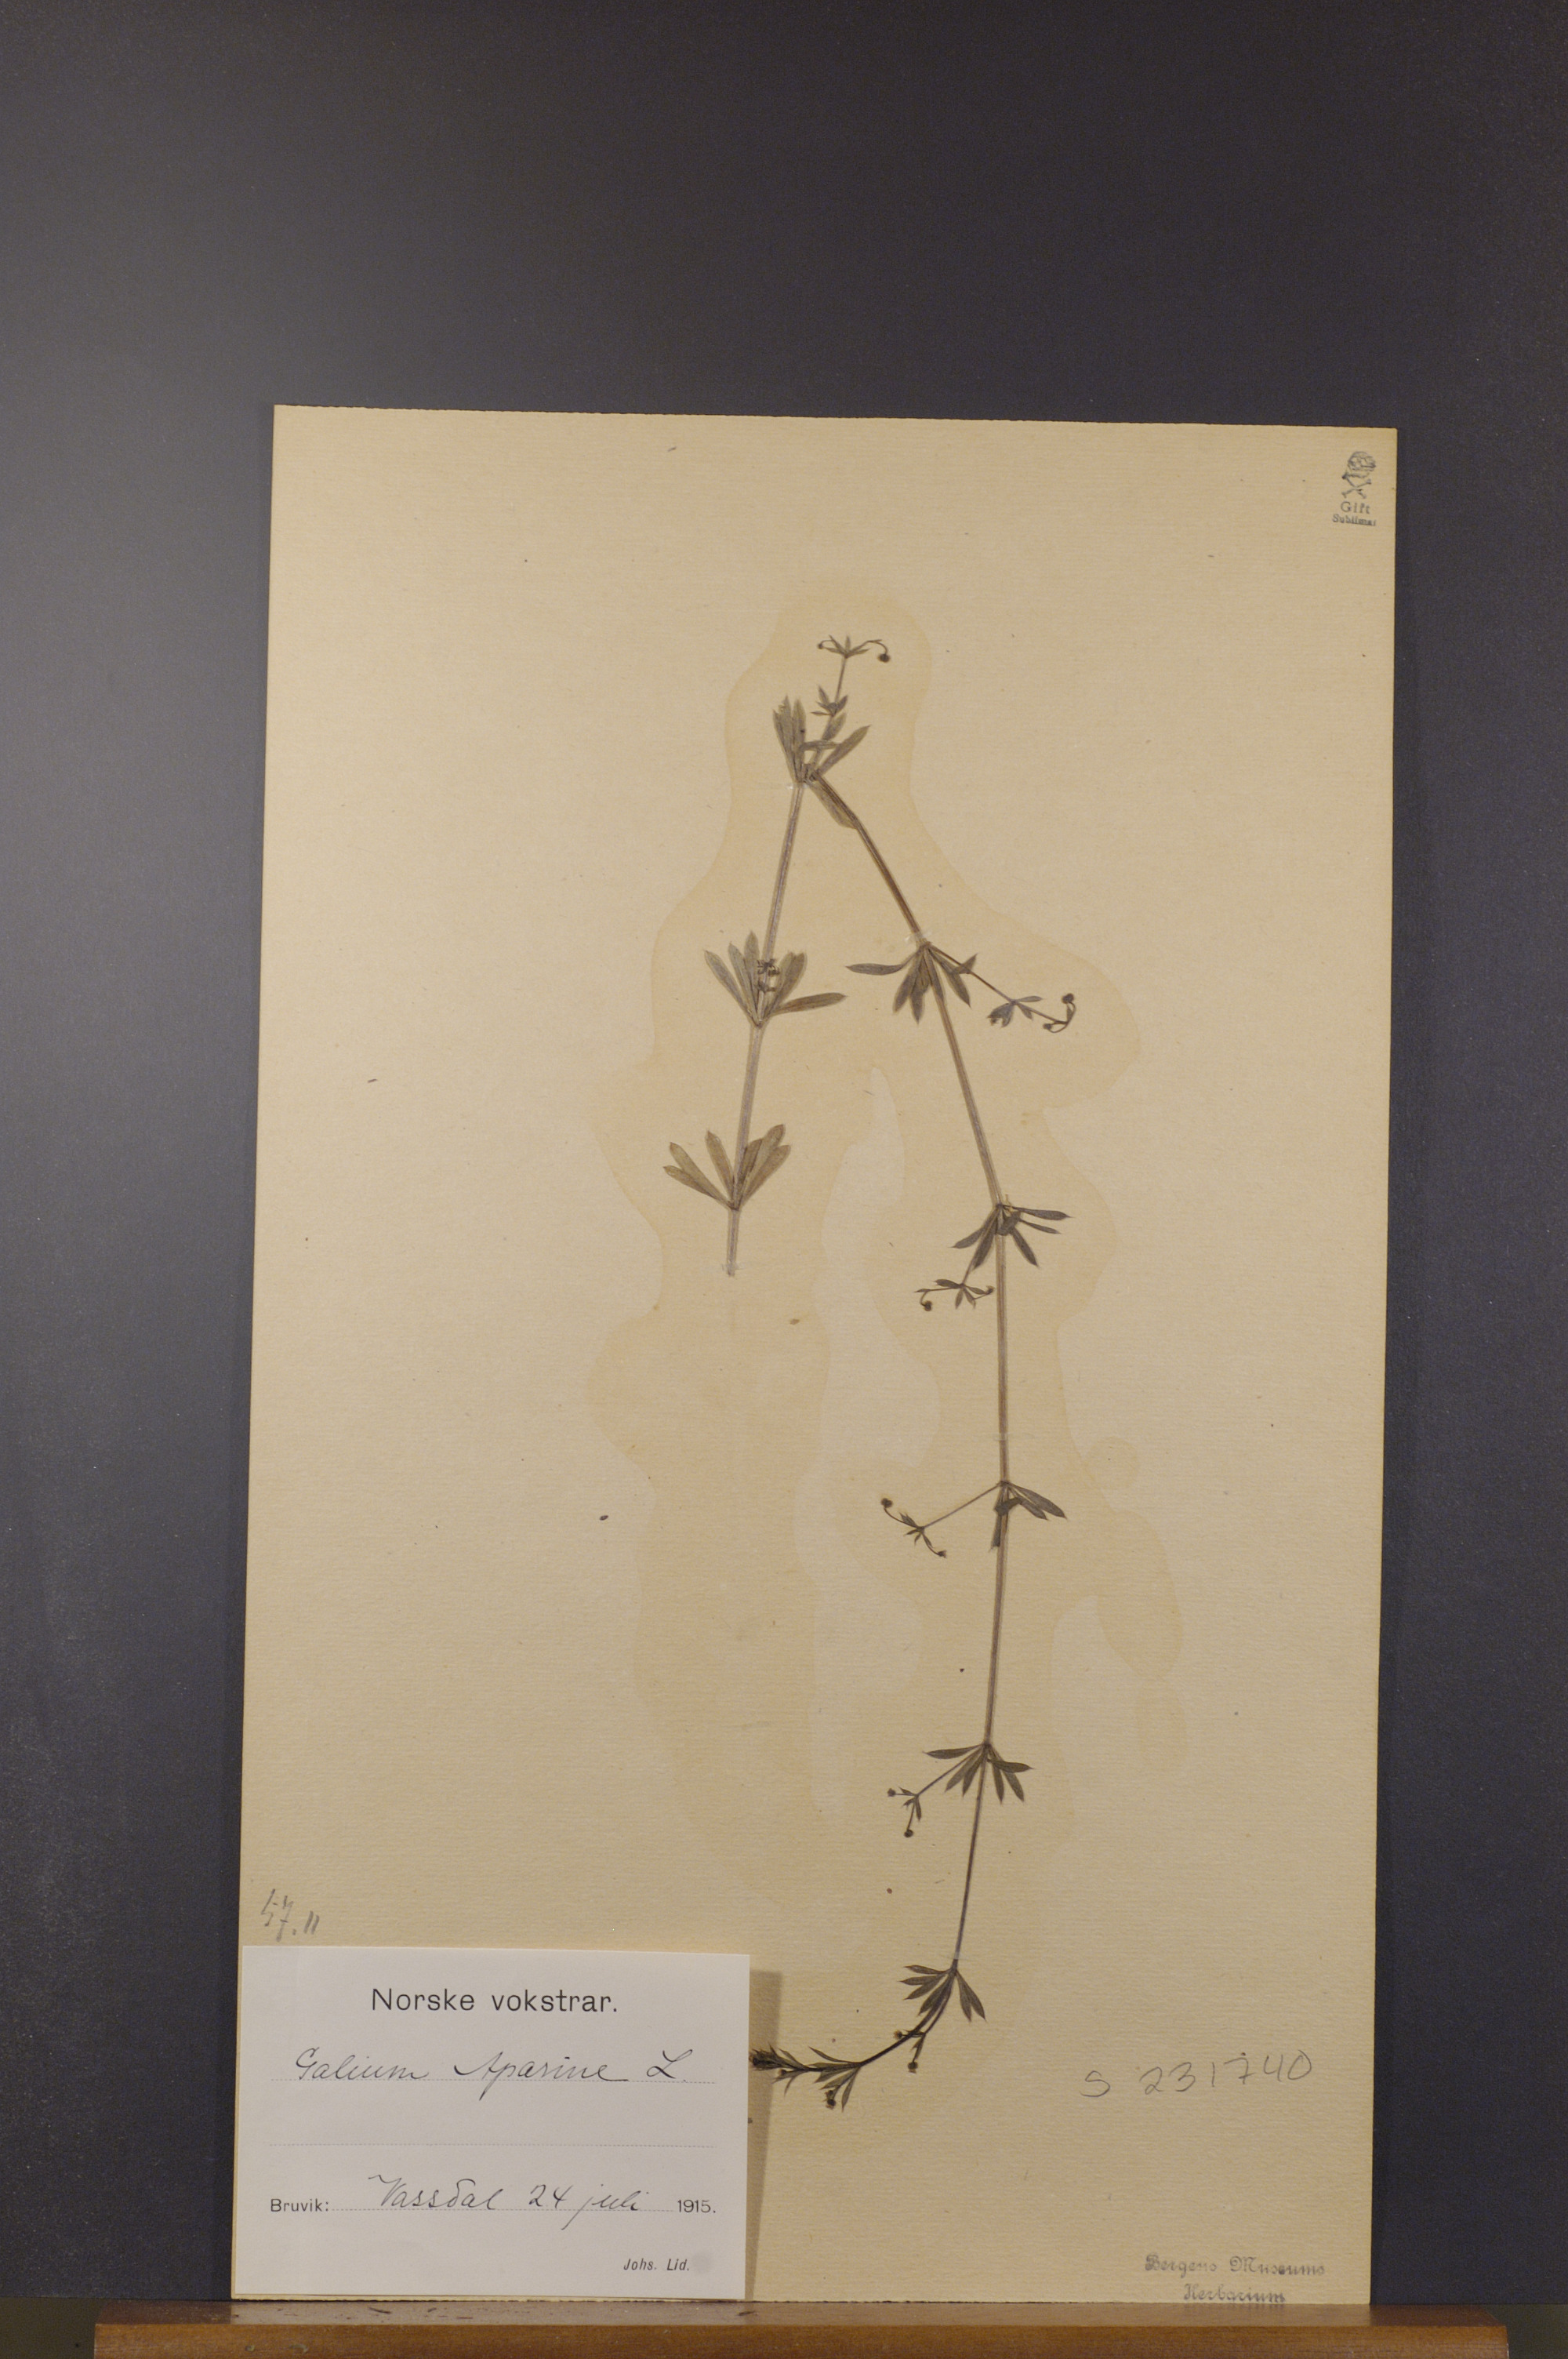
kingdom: Plantae
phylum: Tracheophyta
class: Magnoliopsida
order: Gentianales
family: Rubiaceae
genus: Galium
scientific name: Galium aparine
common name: Cleavers
